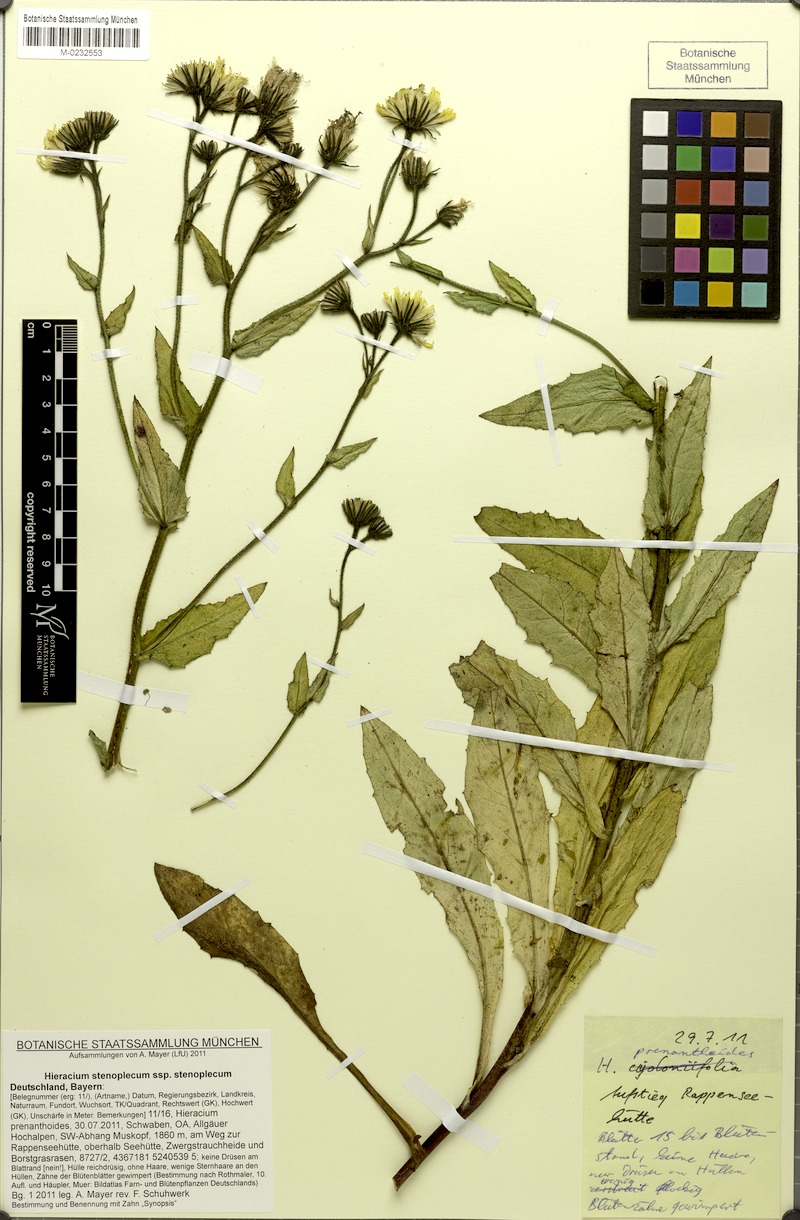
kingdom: Plantae
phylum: Tracheophyta
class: Magnoliopsida
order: Asterales
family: Asteraceae
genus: Hieracium
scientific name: Hieracium stenoplecum
